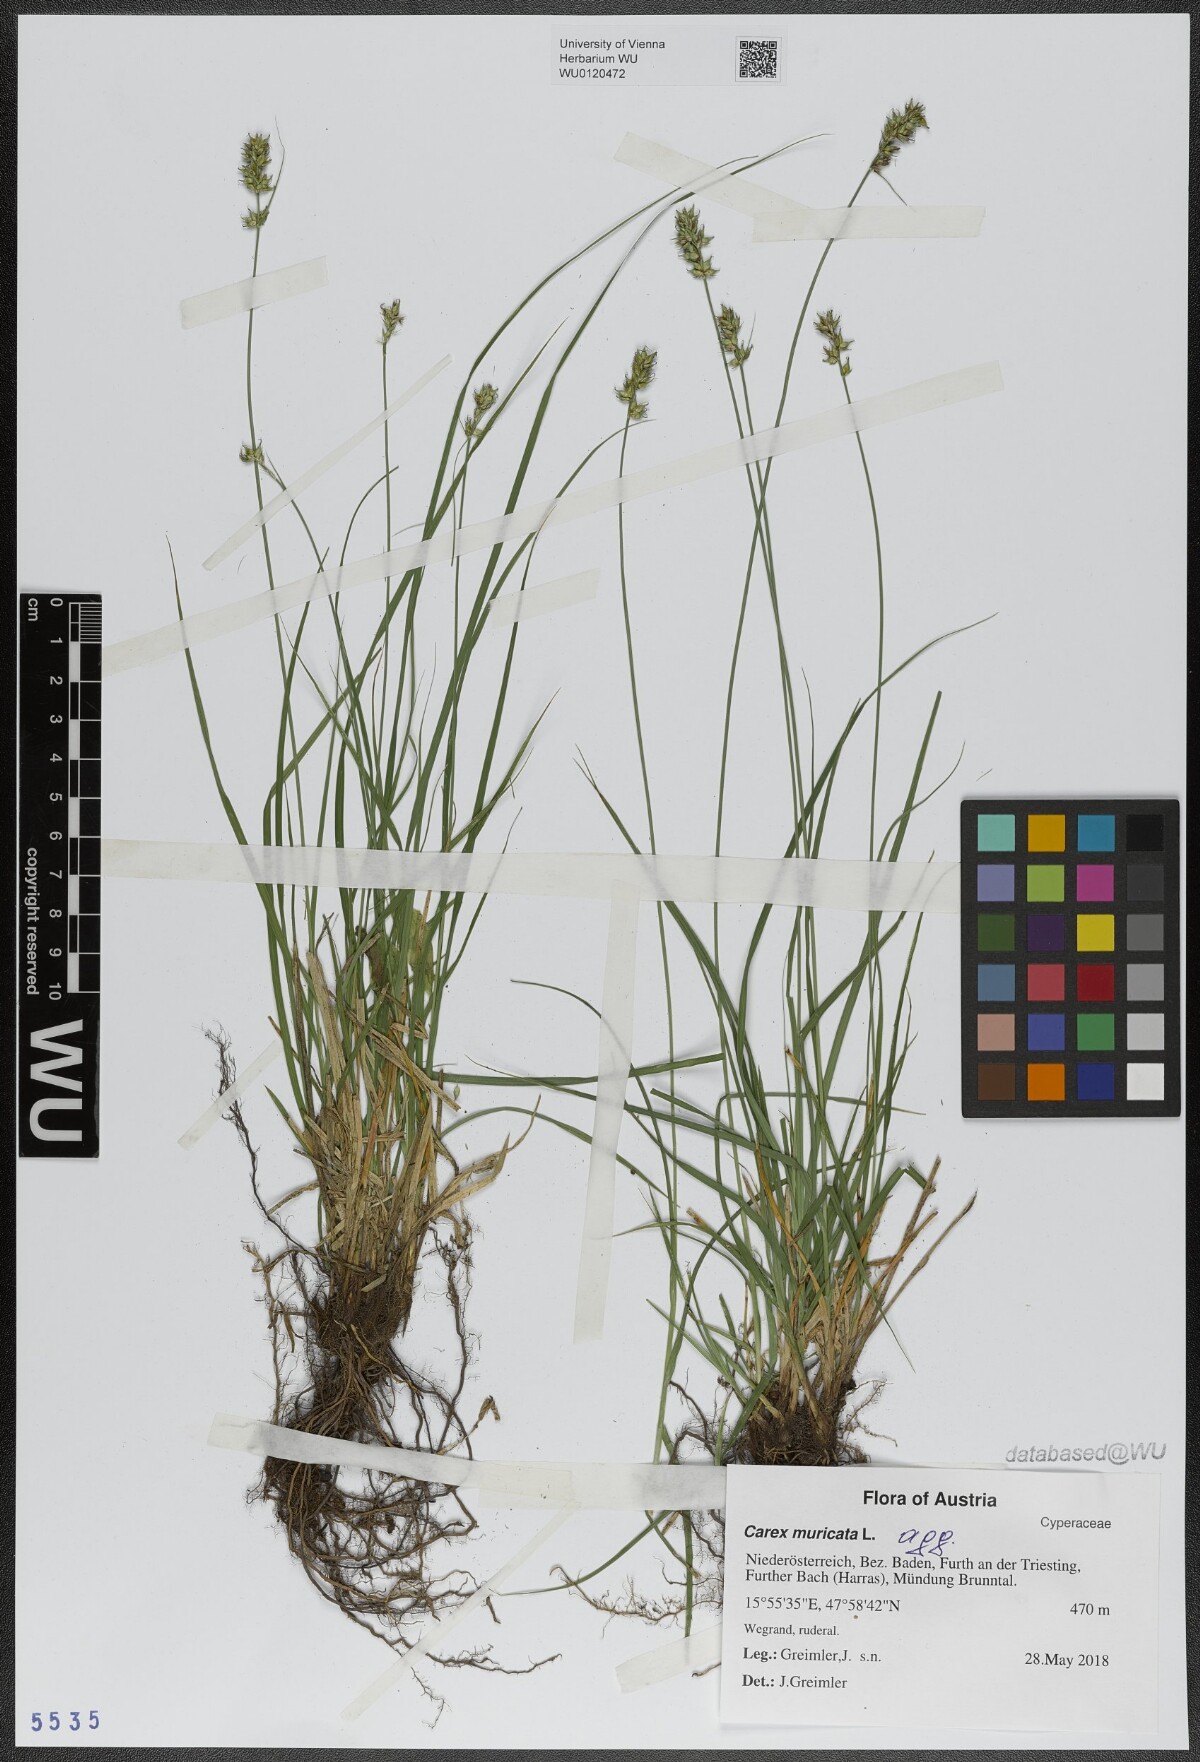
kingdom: Plantae
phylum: Tracheophyta
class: Liliopsida
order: Poales
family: Cyperaceae
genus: Carex
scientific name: Carex muricata
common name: Rough sedge
